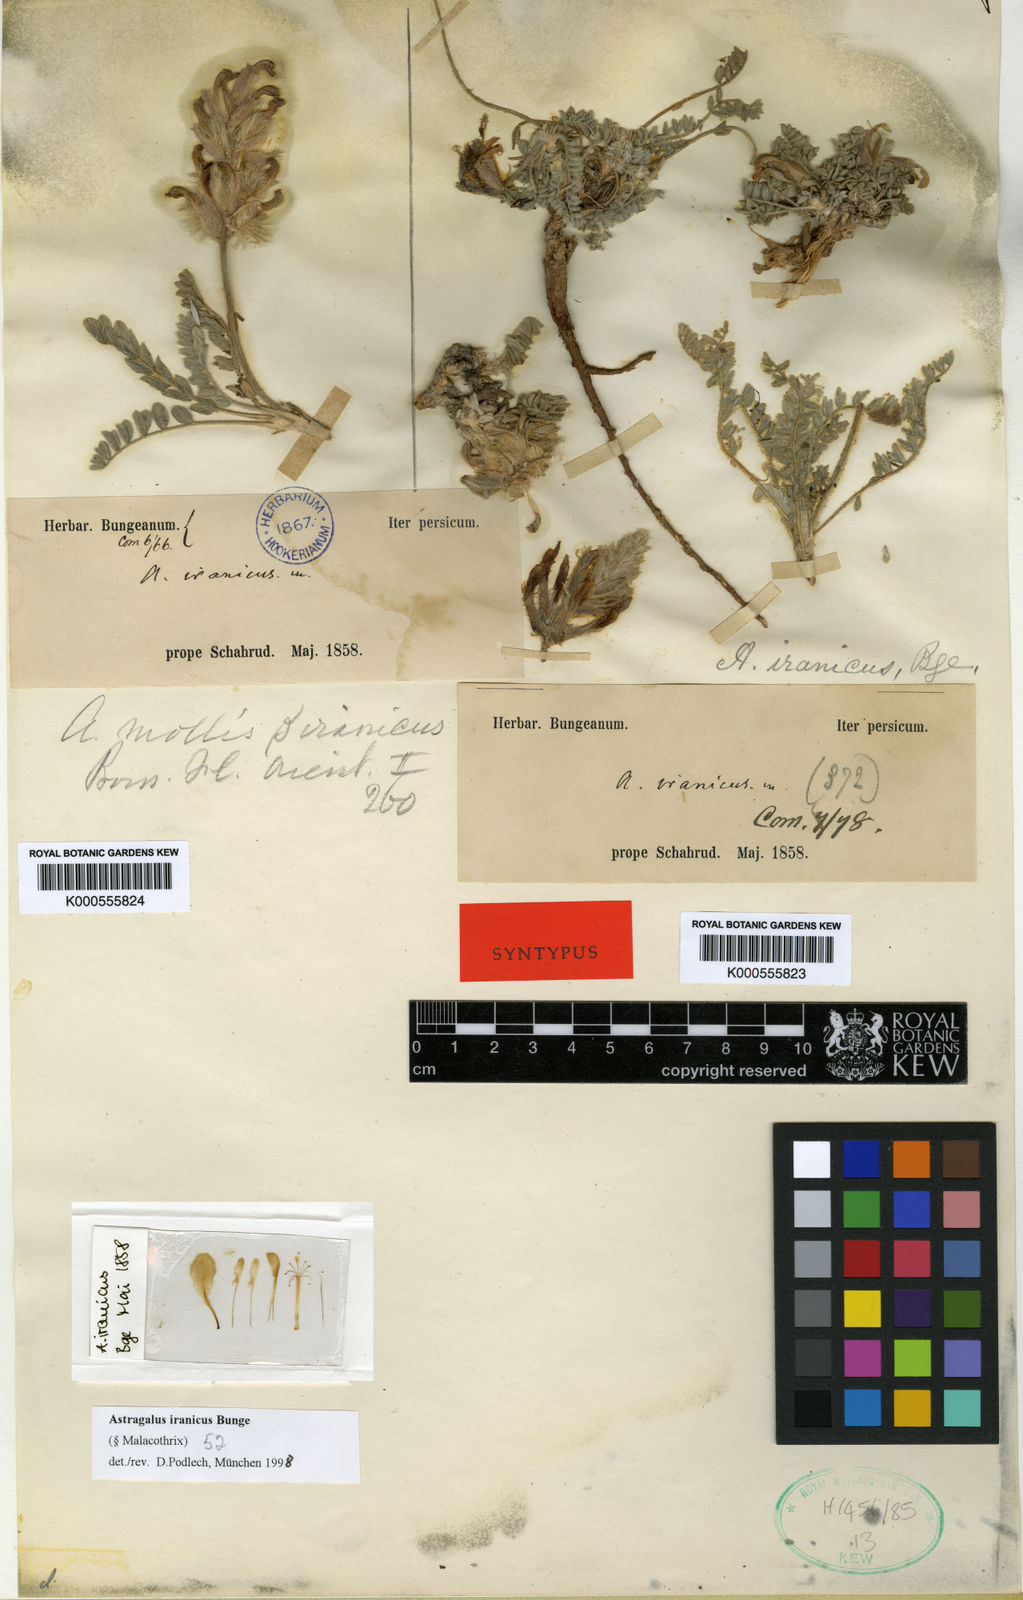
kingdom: Plantae
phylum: Tracheophyta
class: Magnoliopsida
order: Fabales
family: Fabaceae
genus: Astragalus
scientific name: Astragalus iranicus
